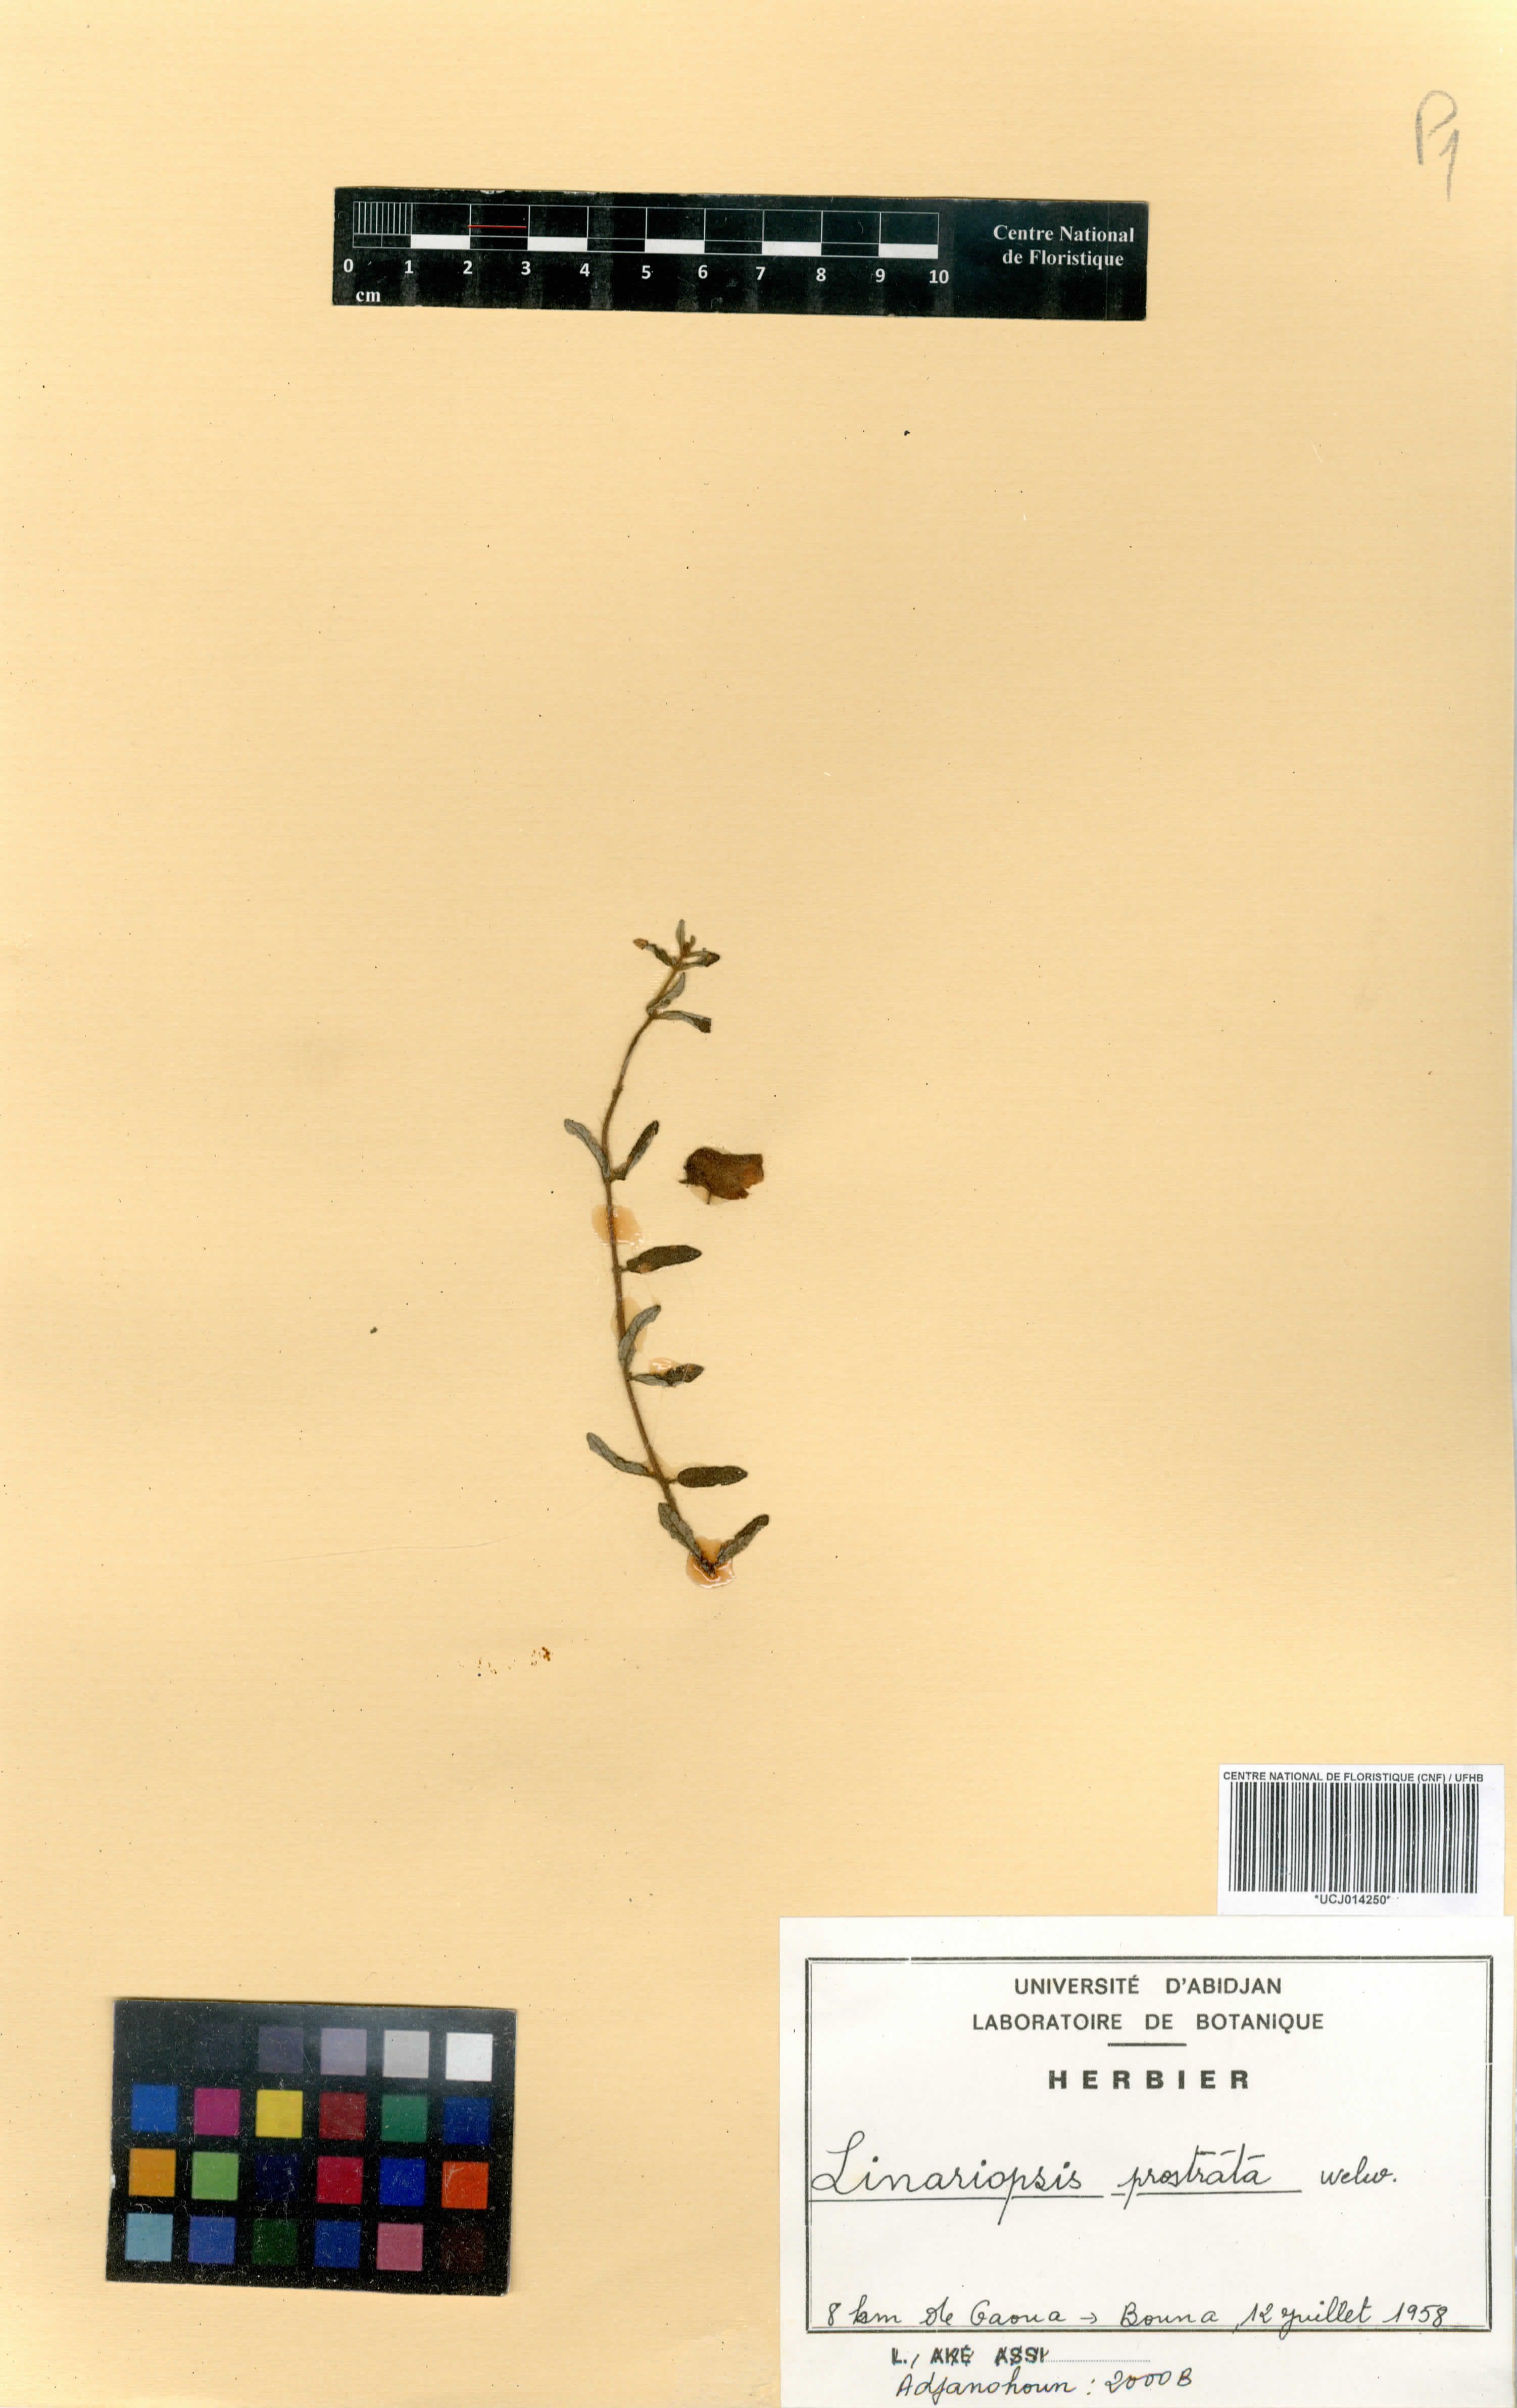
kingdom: Plantae
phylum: Tracheophyta
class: Magnoliopsida
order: Lamiales
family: Pedaliaceae
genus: Linariopsis
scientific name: Linariopsis prostrata
